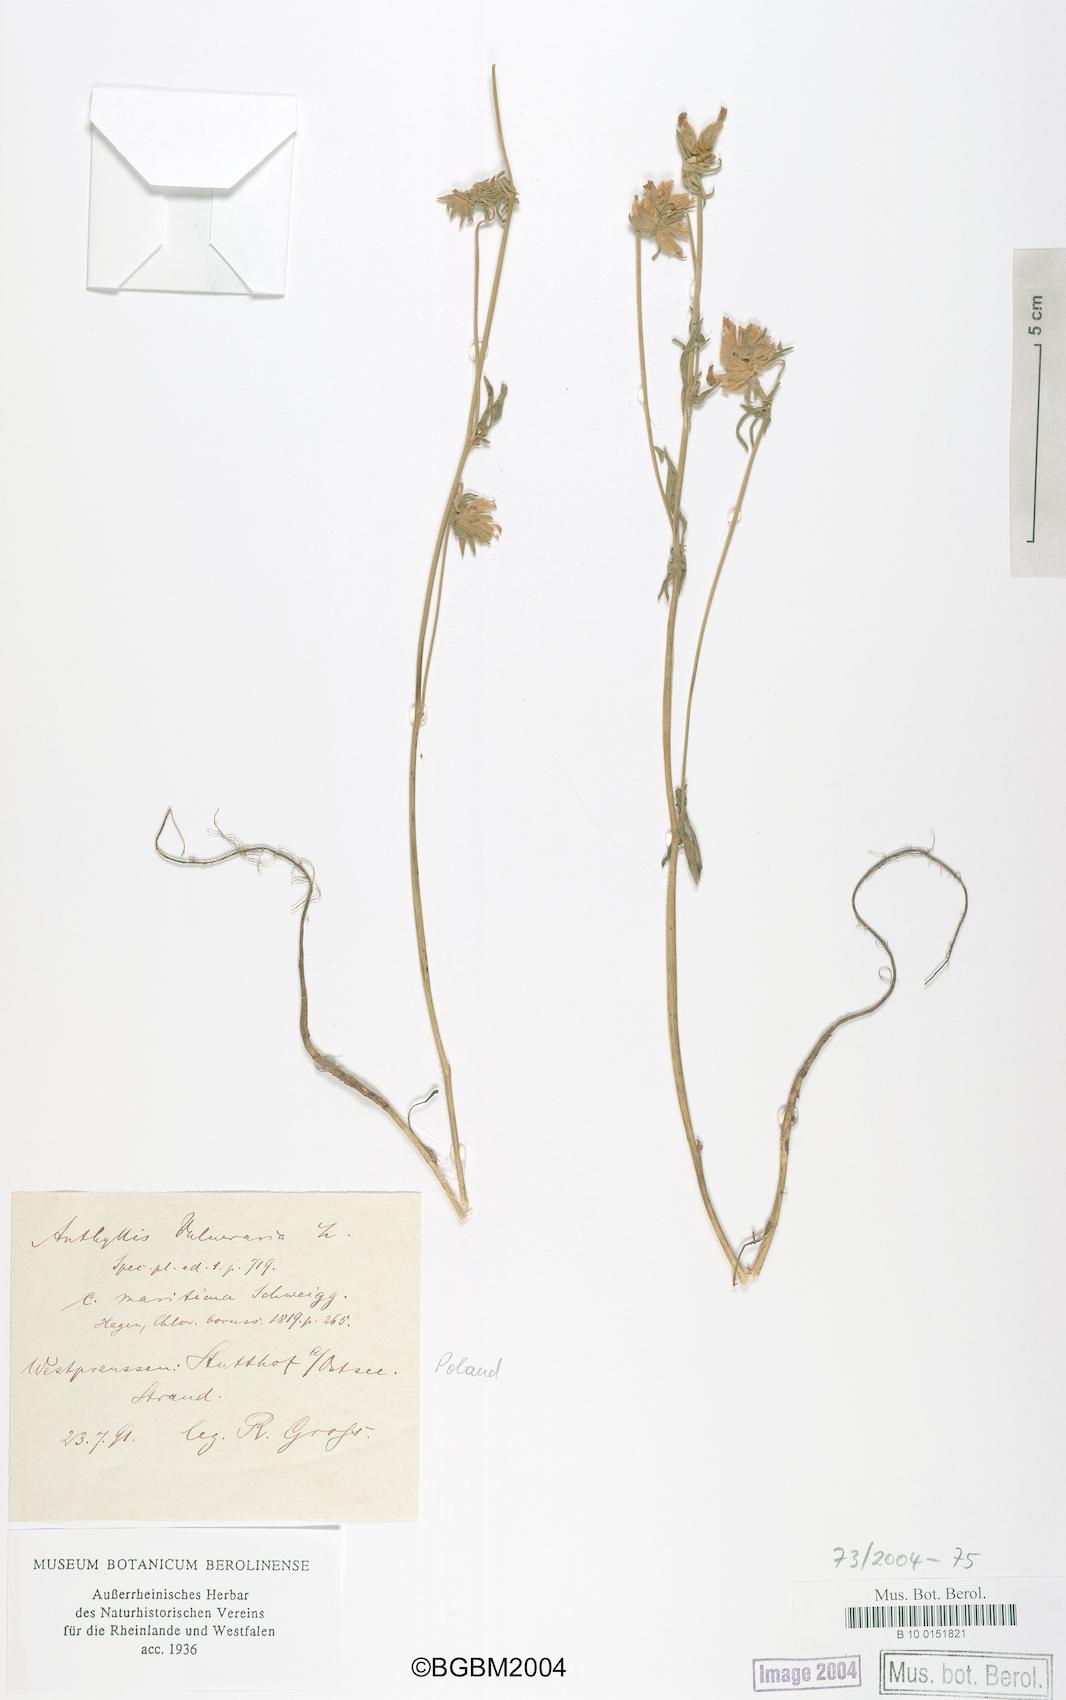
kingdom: Plantae
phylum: Tracheophyta
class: Magnoliopsida
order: Fabales
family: Fabaceae
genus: Anthyllis
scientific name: Anthyllis vulneraria
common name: Kidney vetch
